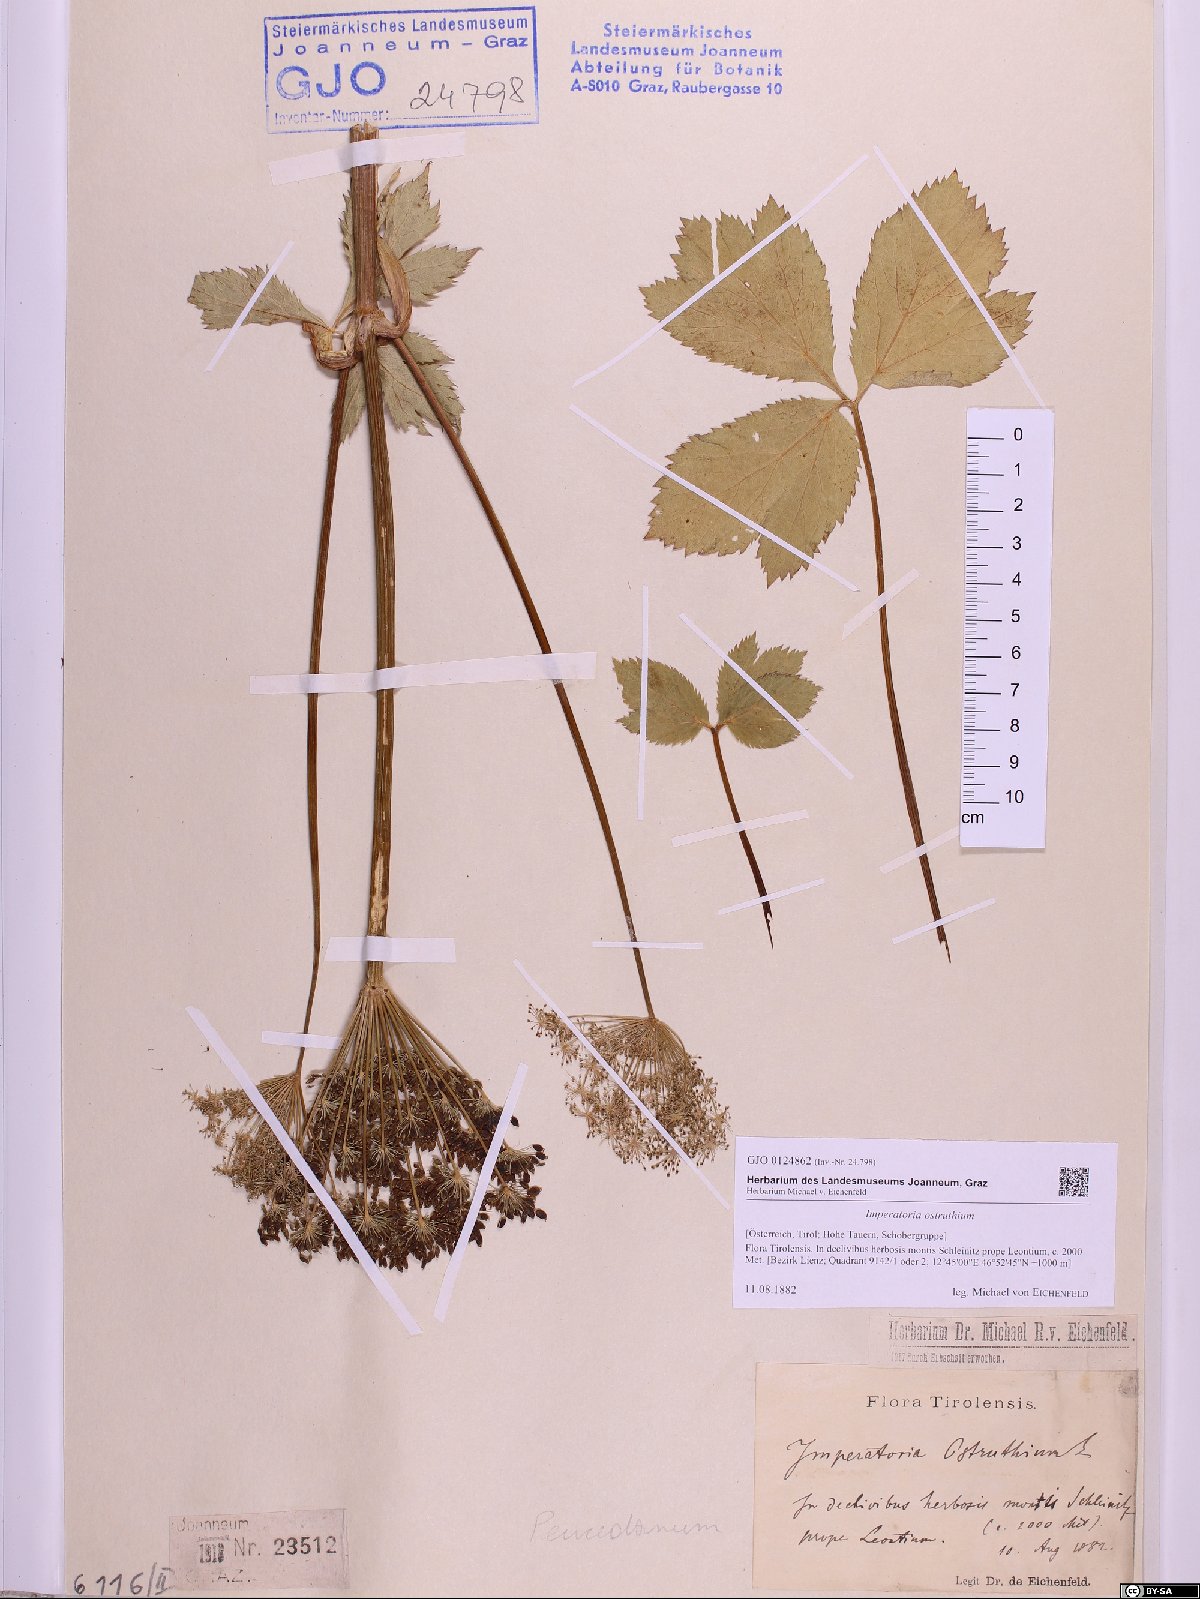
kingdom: Plantae
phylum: Tracheophyta
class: Magnoliopsida
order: Apiales
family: Apiaceae
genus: Imperatoria
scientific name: Imperatoria ostruthium
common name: Masterwort
